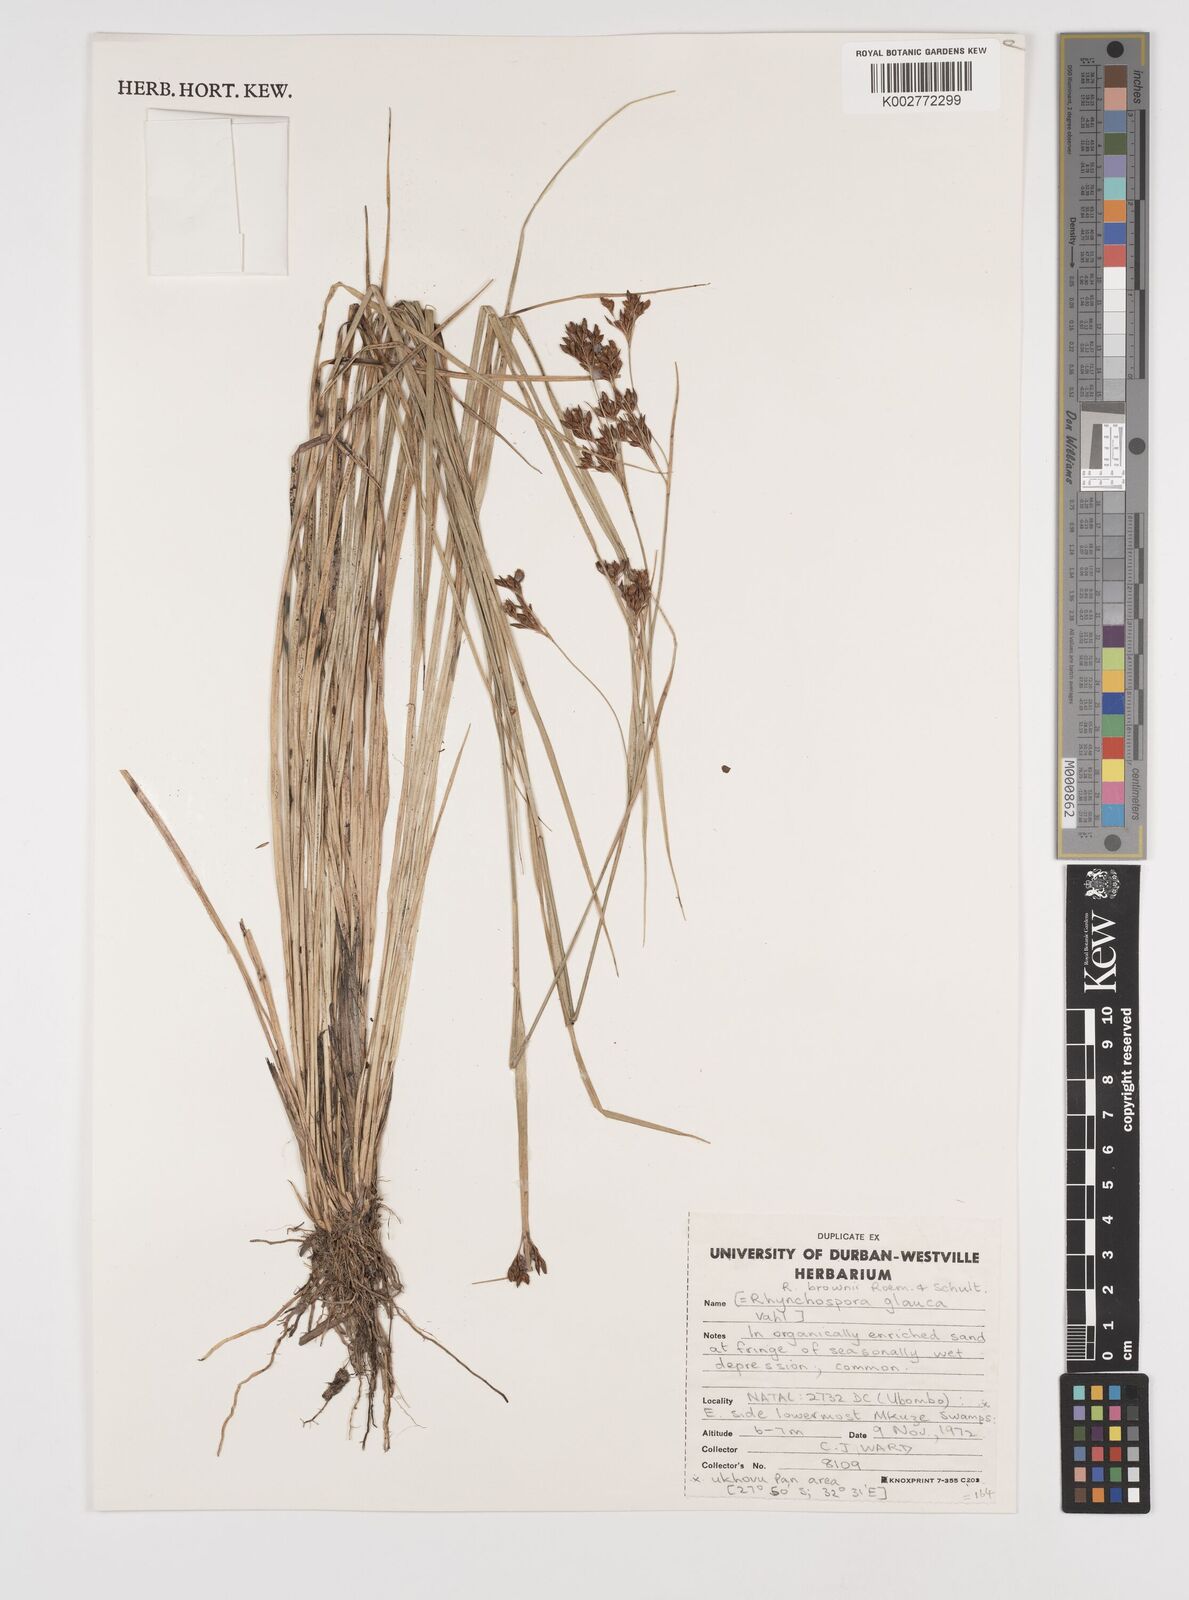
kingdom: Plantae
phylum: Tracheophyta
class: Liliopsida
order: Poales
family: Cyperaceae
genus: Rhynchospora
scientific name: Rhynchospora rugosa
